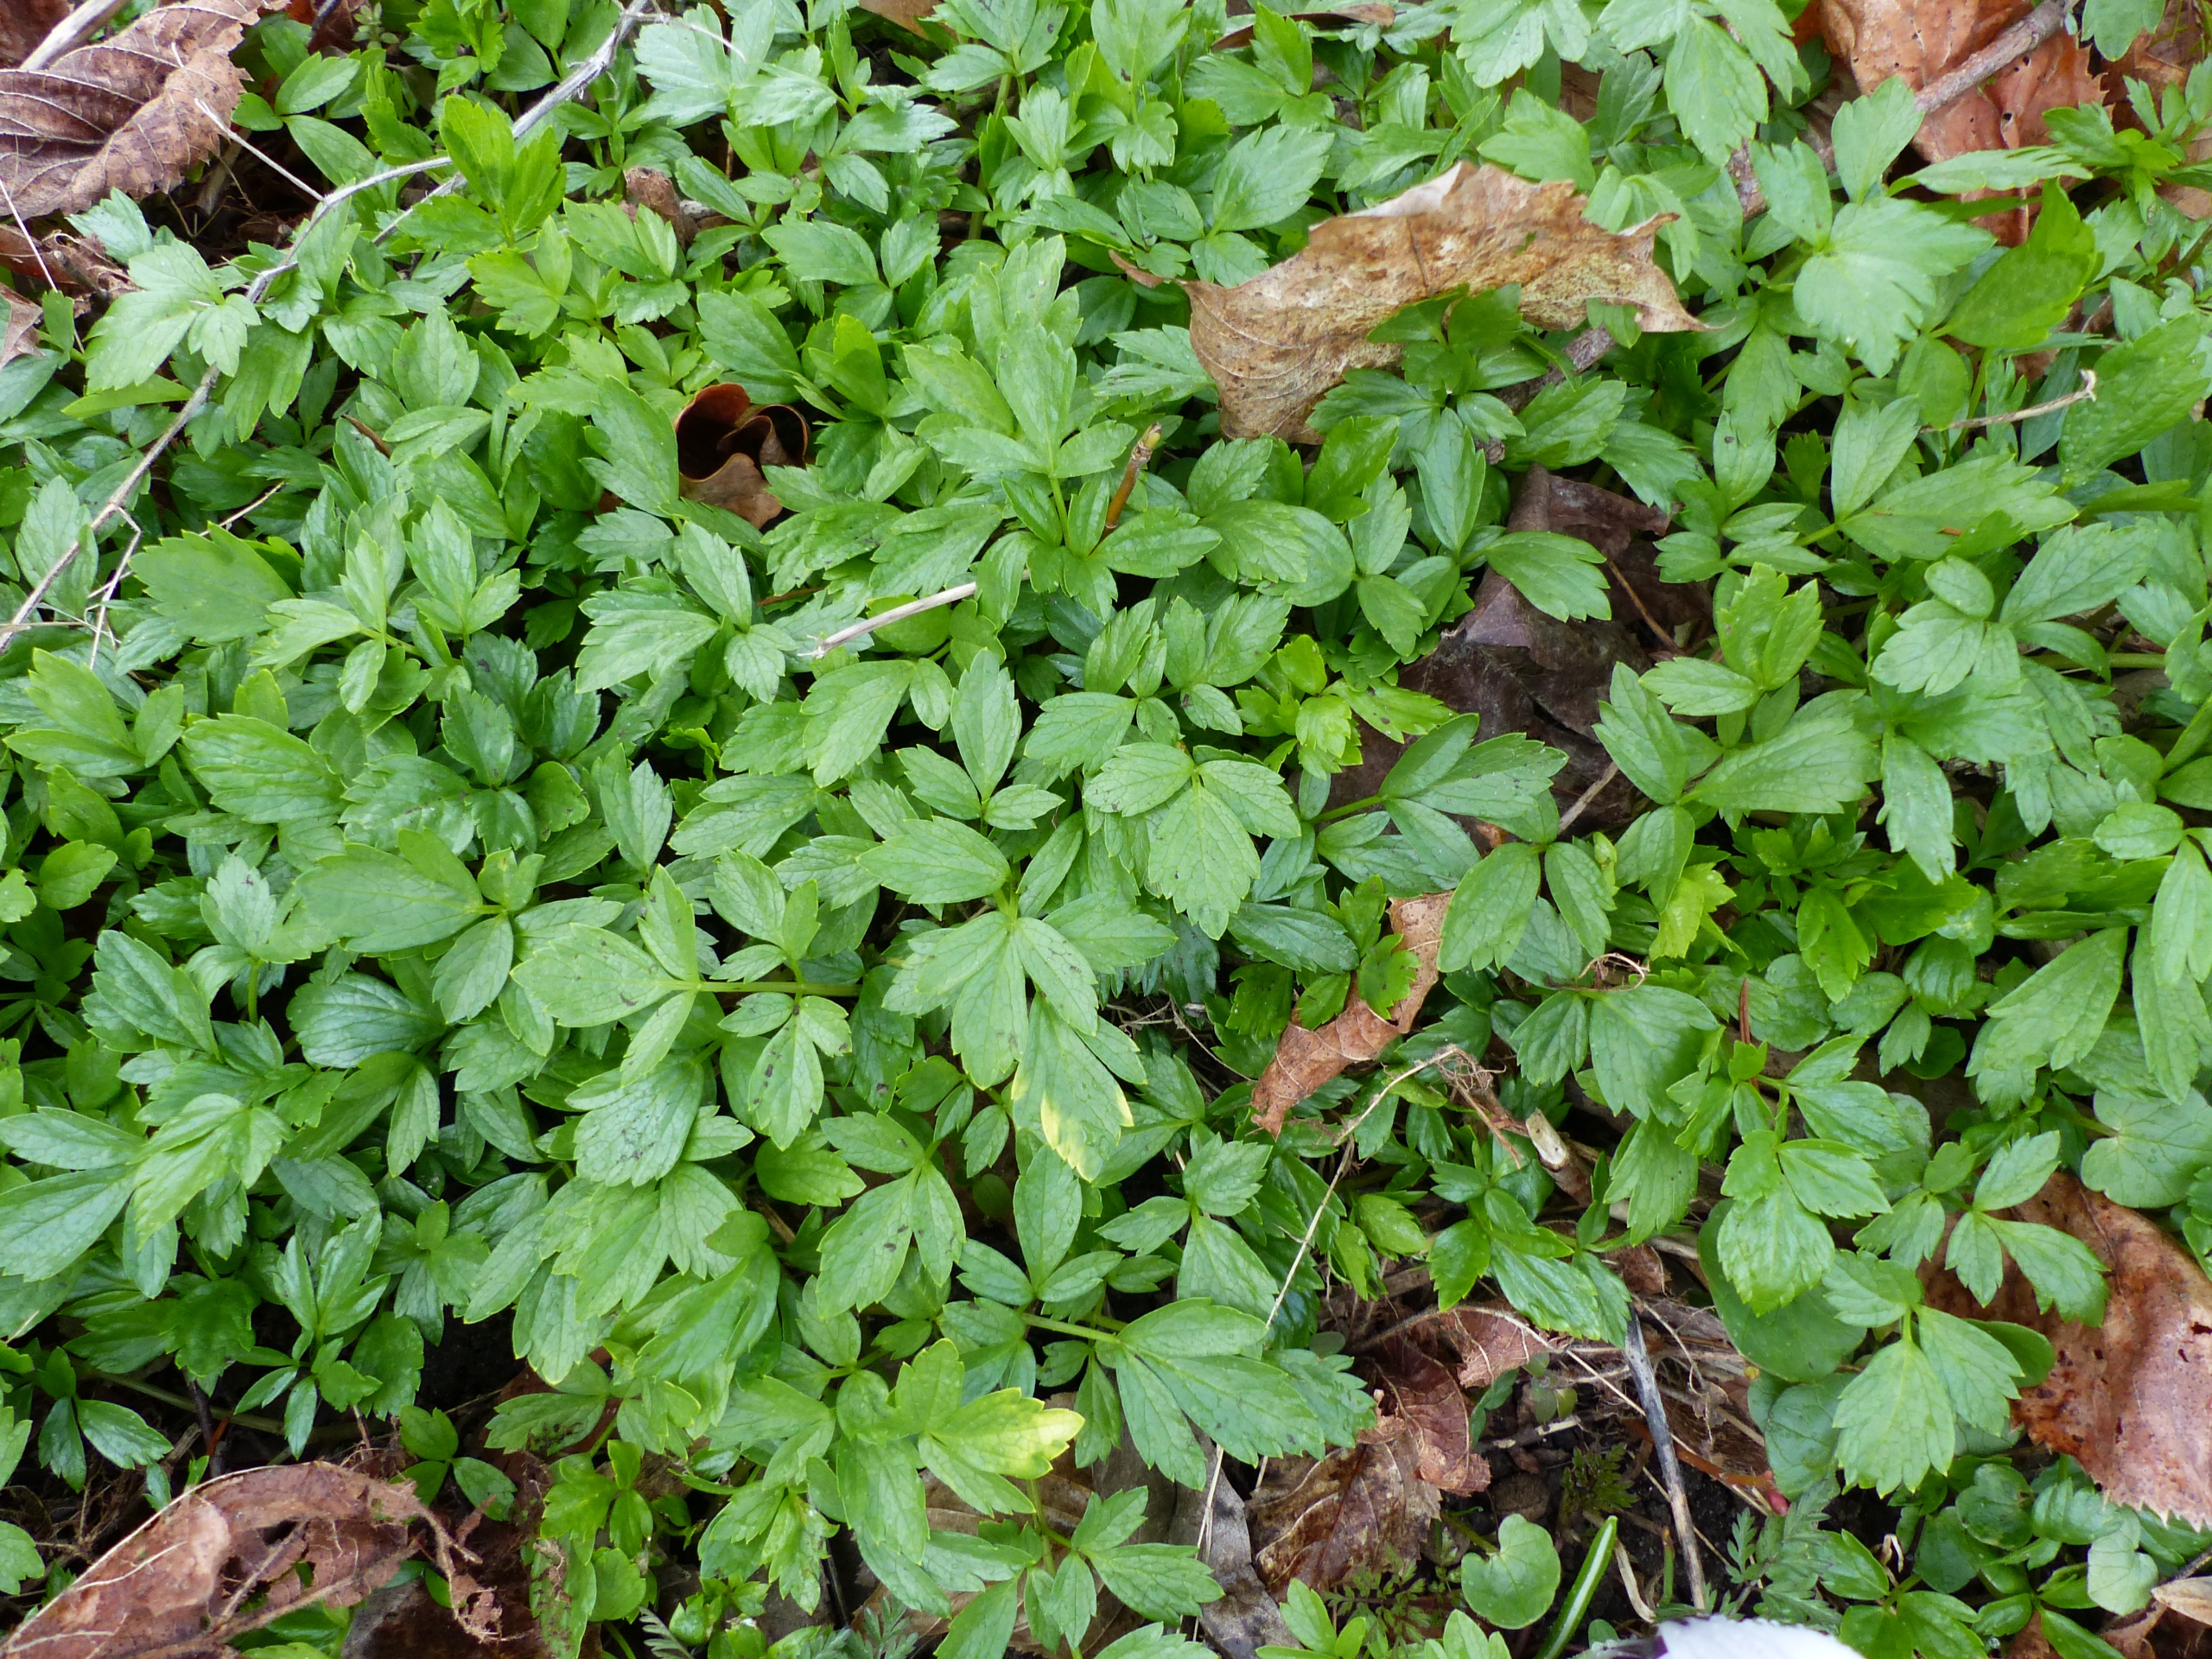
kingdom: Plantae
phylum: Tracheophyta
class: Magnoliopsida
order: Apiales
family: Apiaceae
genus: Smyrnium
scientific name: Smyrnium perfoliatum
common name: Lundgylden
